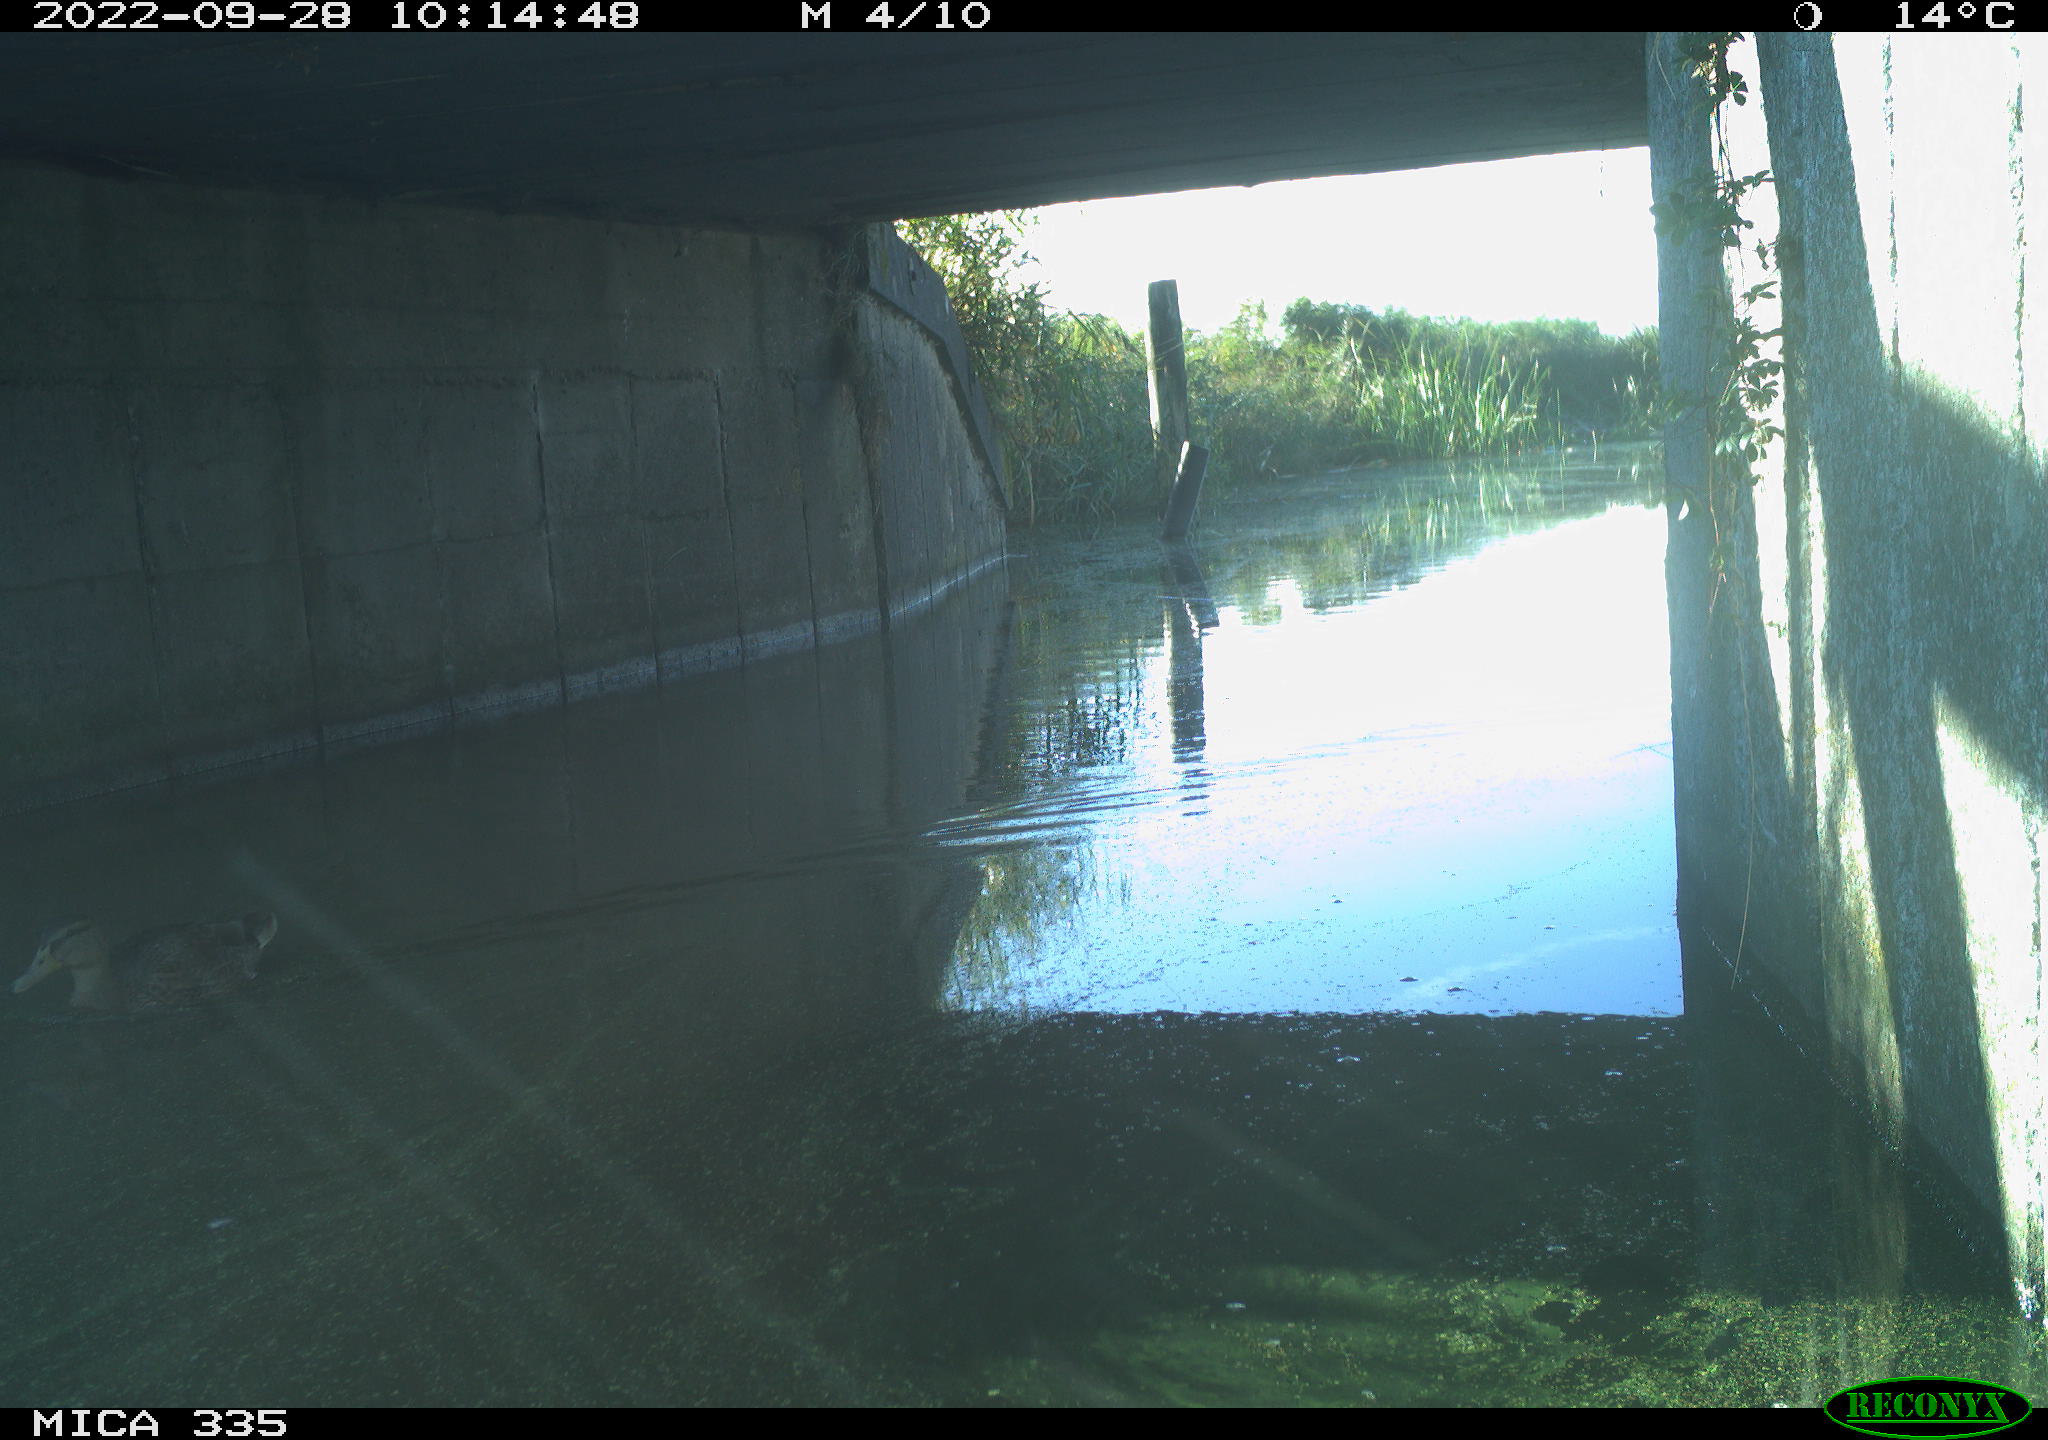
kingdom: Animalia
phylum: Chordata
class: Aves
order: Anseriformes
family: Anatidae
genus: Anas
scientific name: Anas platyrhynchos
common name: Mallard
